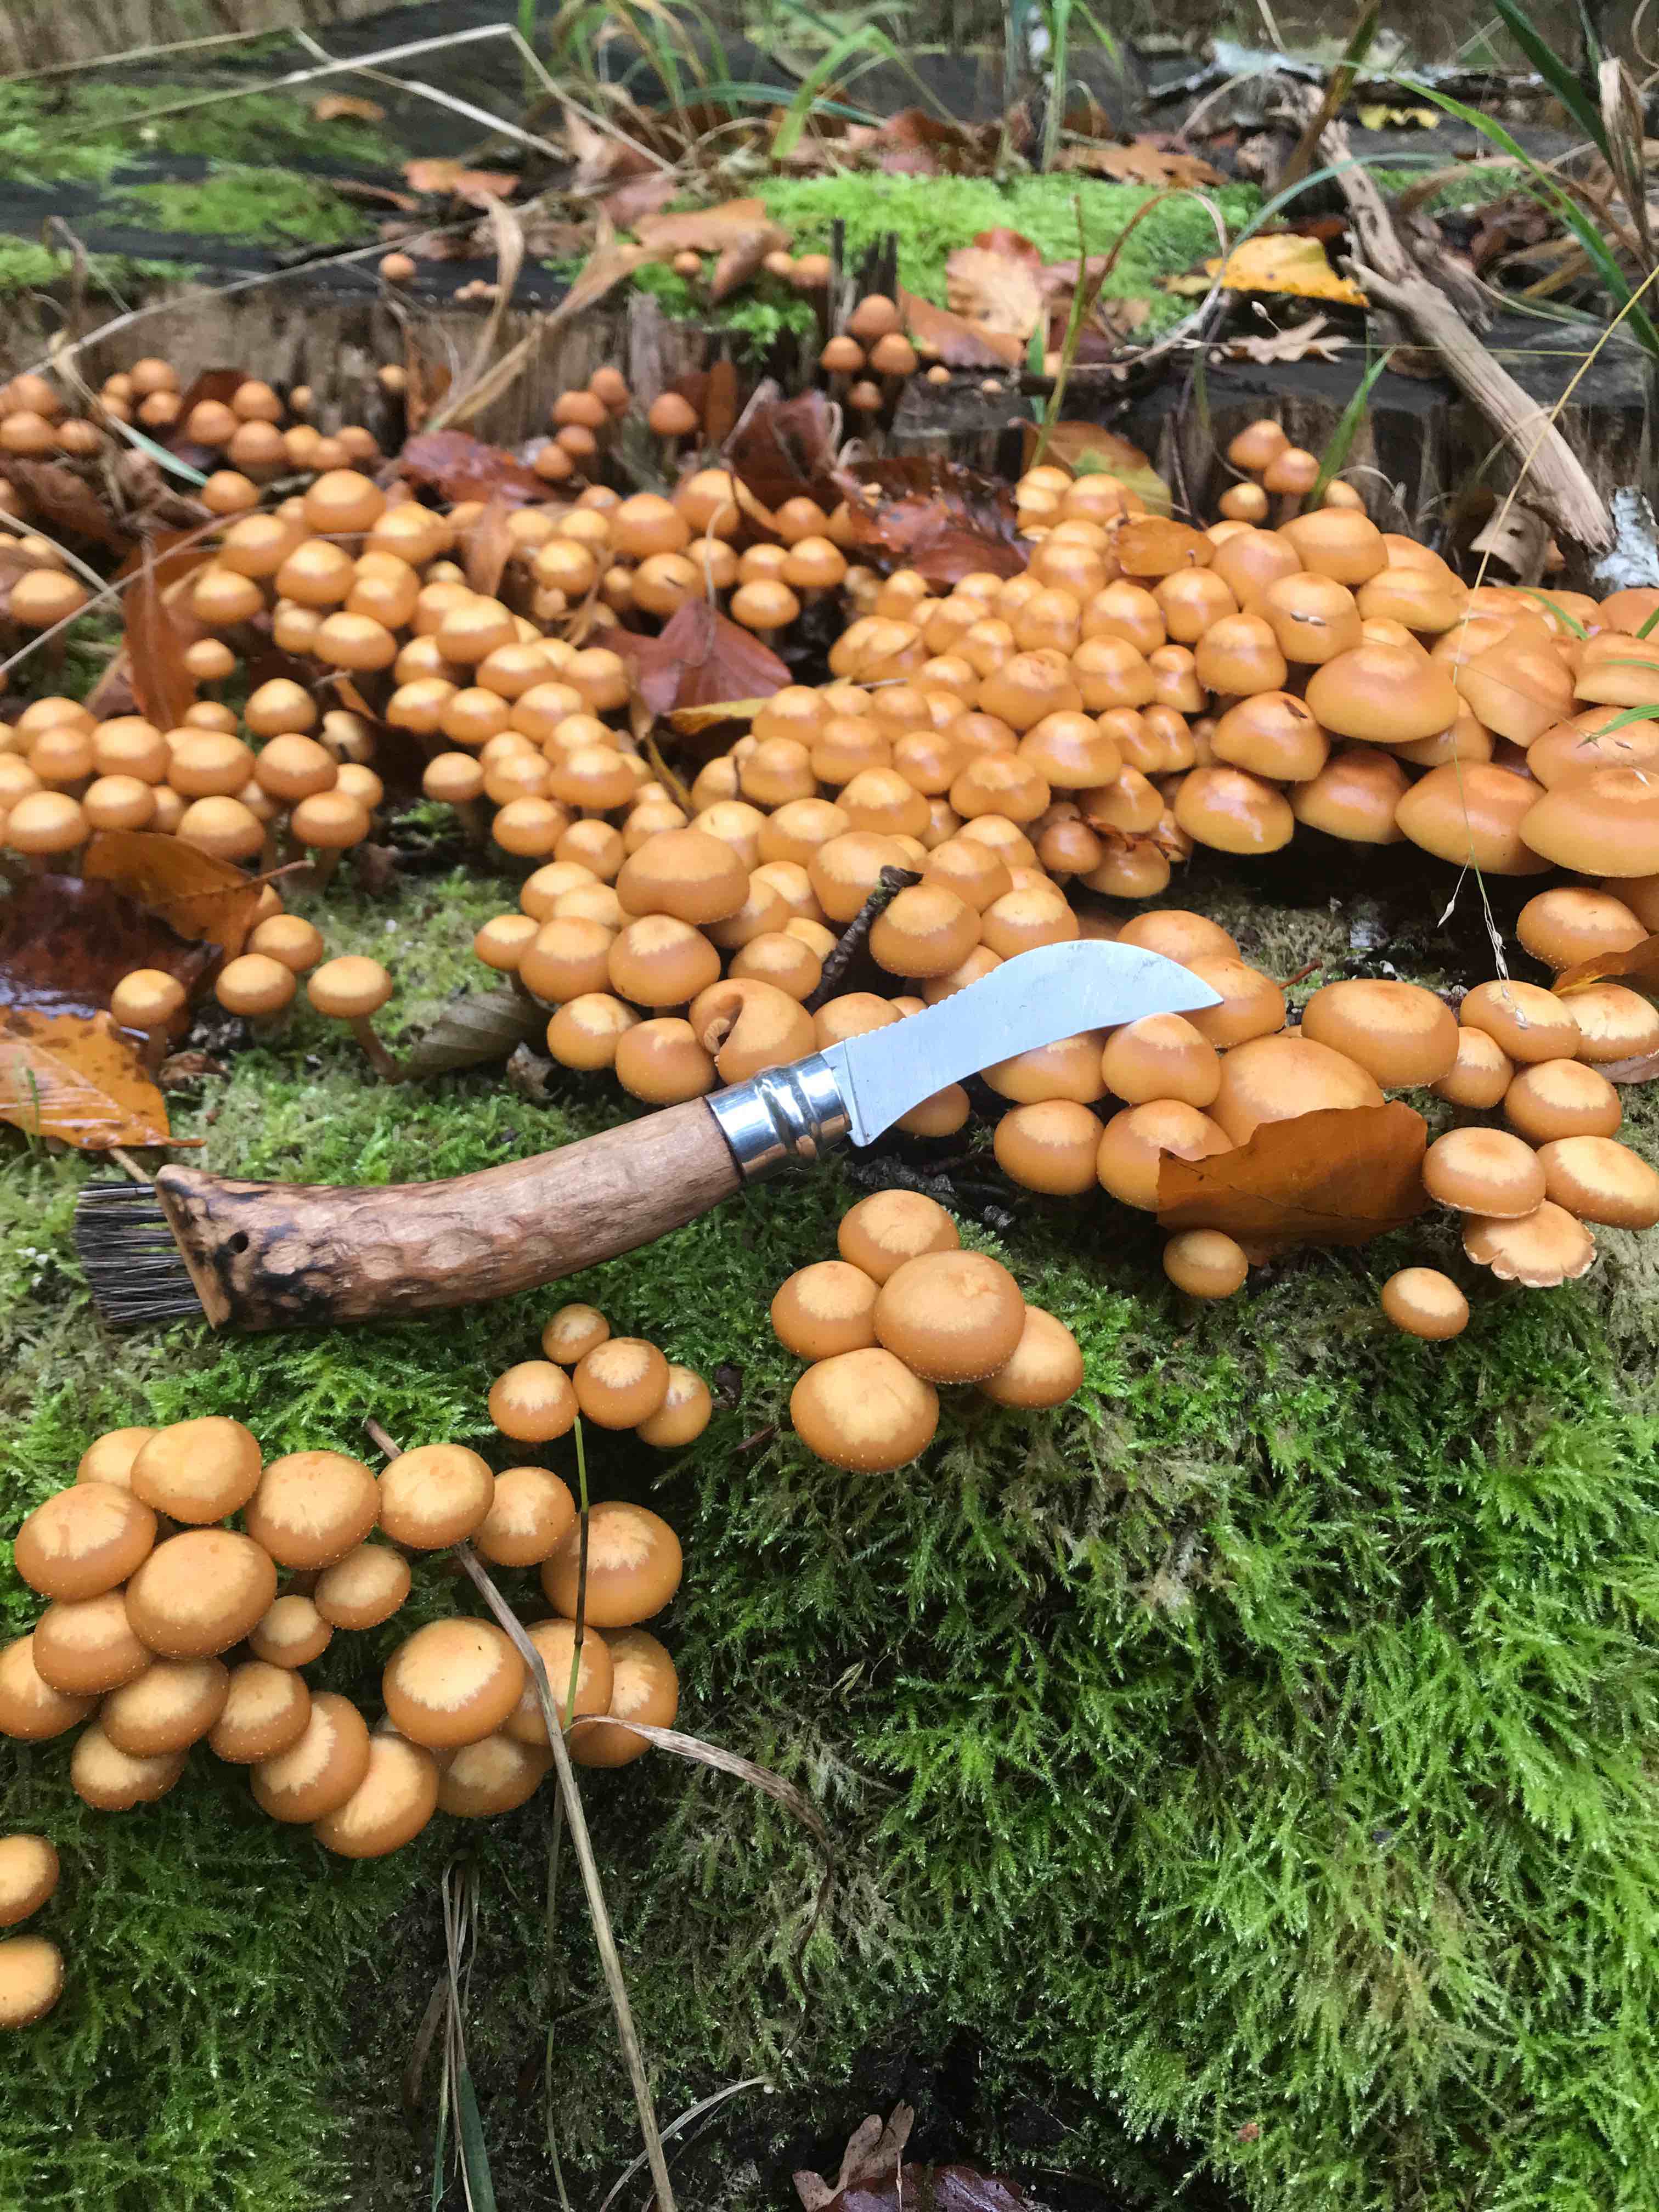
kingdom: Fungi
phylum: Basidiomycota
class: Agaricomycetes
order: Agaricales
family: Strophariaceae
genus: Kuehneromyces
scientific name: Kuehneromyces mutabilis
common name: foranderlig skælhat
